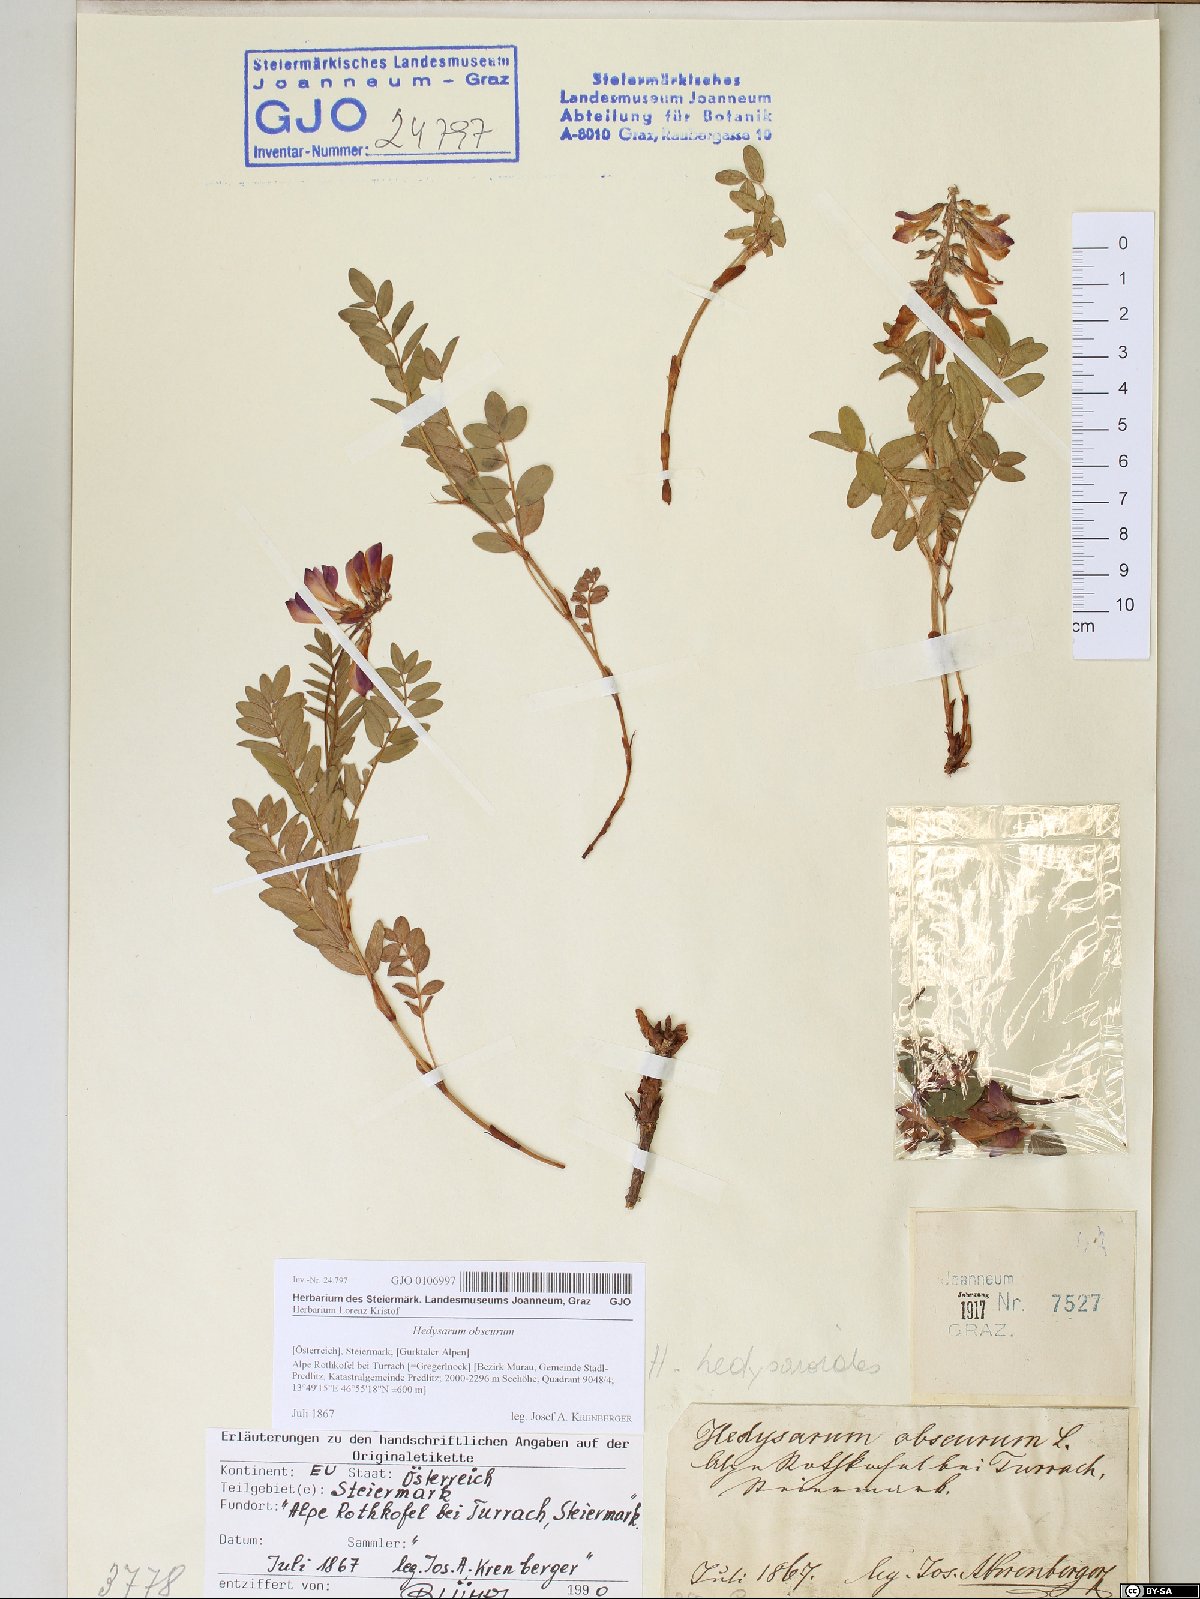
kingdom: Plantae
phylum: Tracheophyta
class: Magnoliopsida
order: Fabales
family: Fabaceae
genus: Hedysarum
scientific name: Hedysarum hedysaroides
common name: Alpine french-honeysuckle
